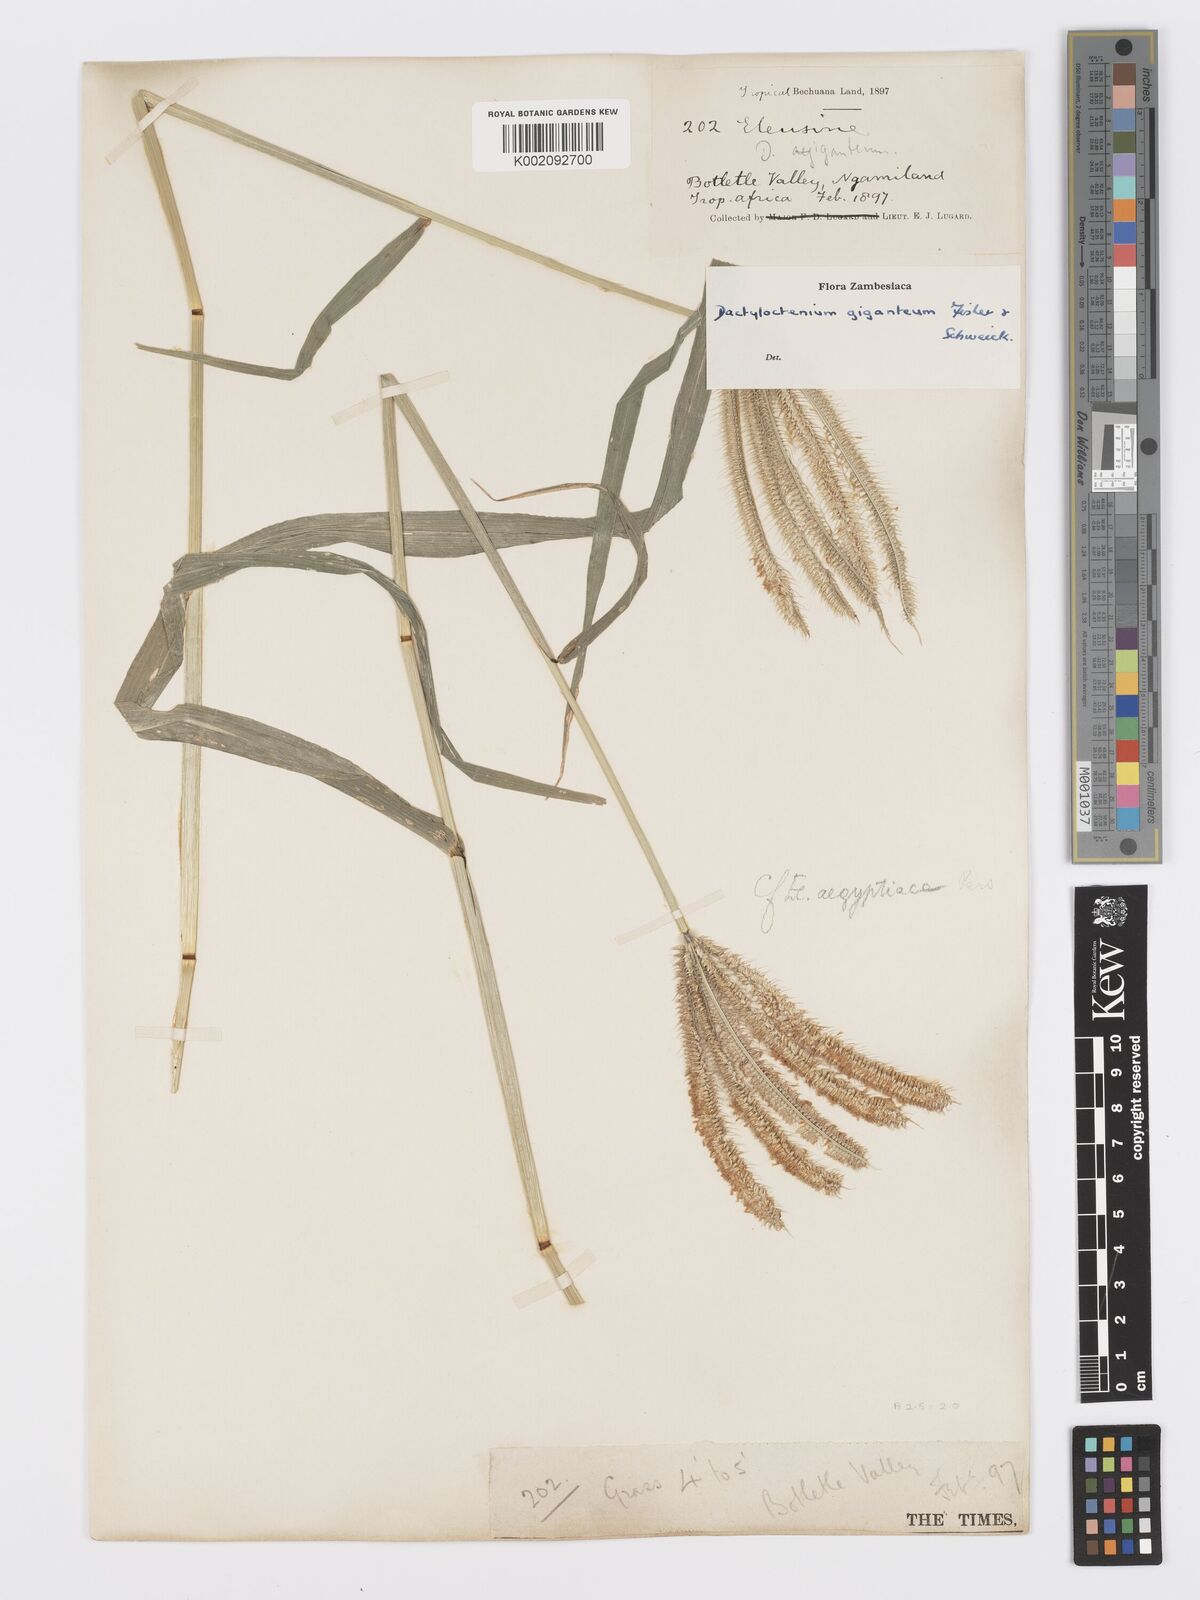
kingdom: Plantae
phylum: Tracheophyta
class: Liliopsida
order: Poales
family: Poaceae
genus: Dactyloctenium
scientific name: Dactyloctenium giganteum
